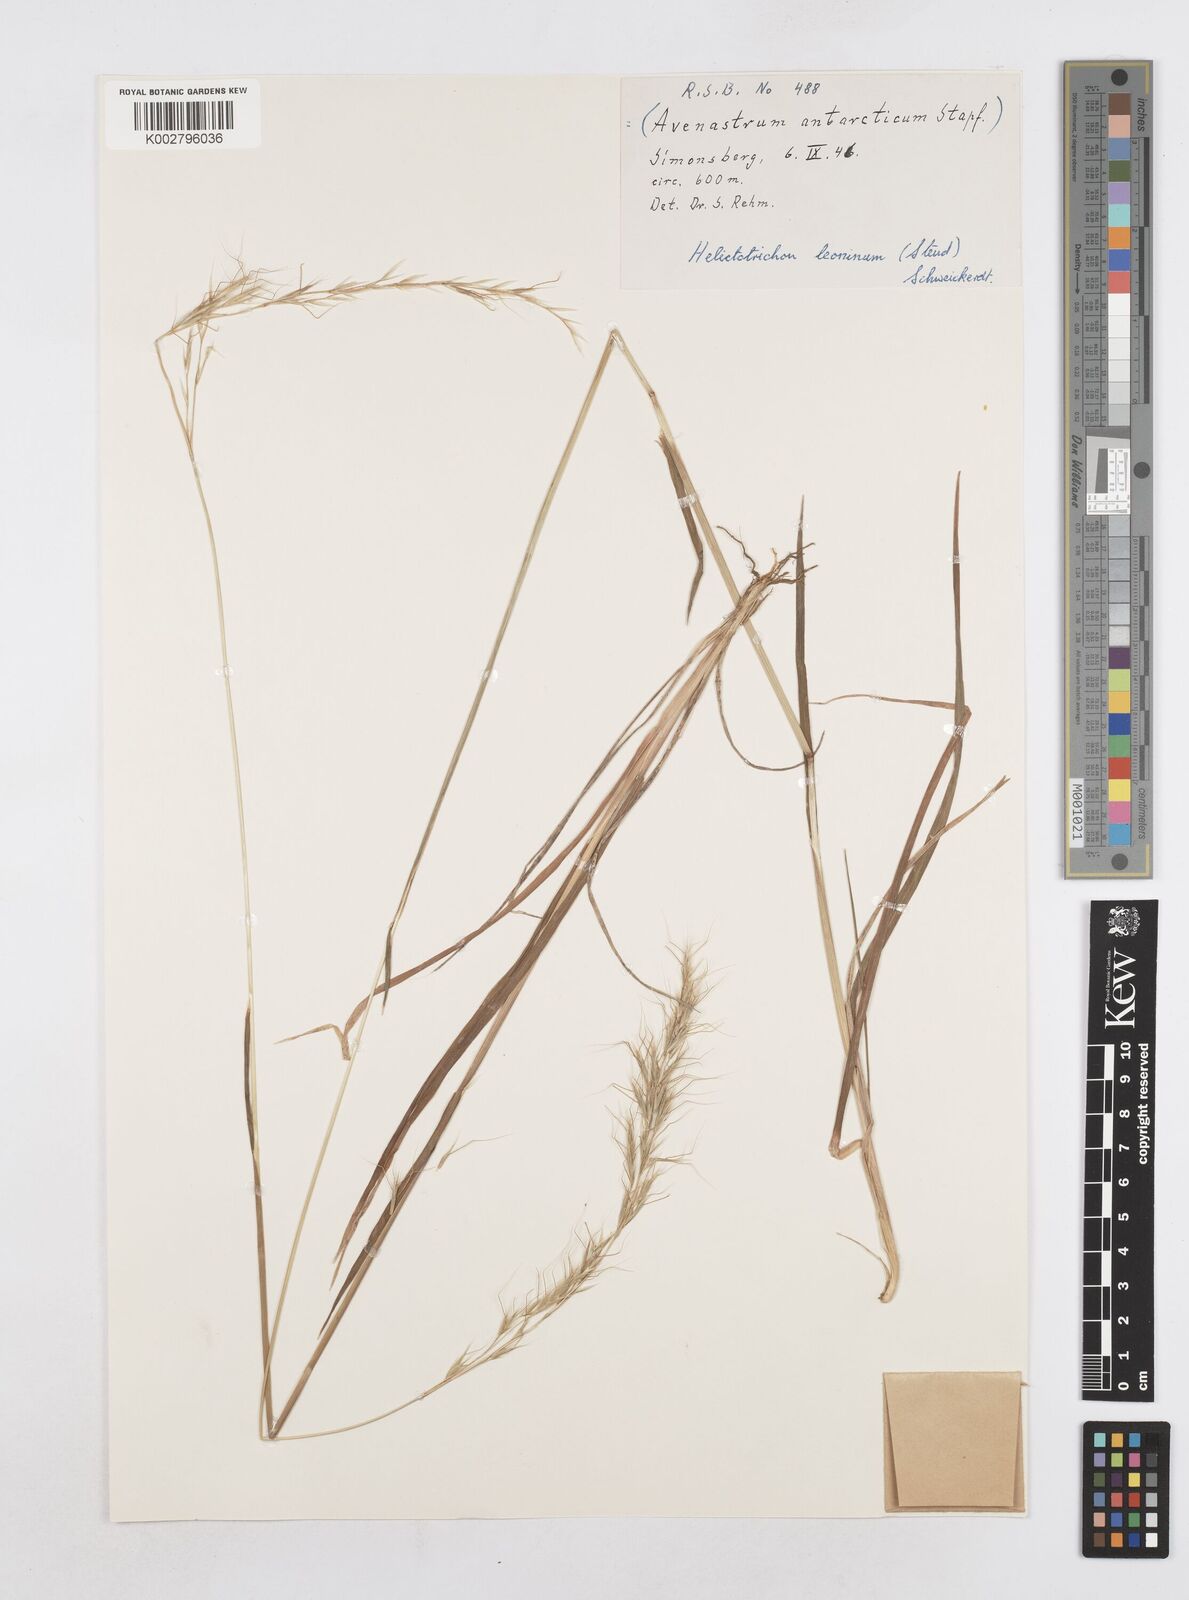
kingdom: Plantae
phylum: Tracheophyta
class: Liliopsida
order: Poales
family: Poaceae
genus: Trisetopsis
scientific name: Trisetopsis leonina
